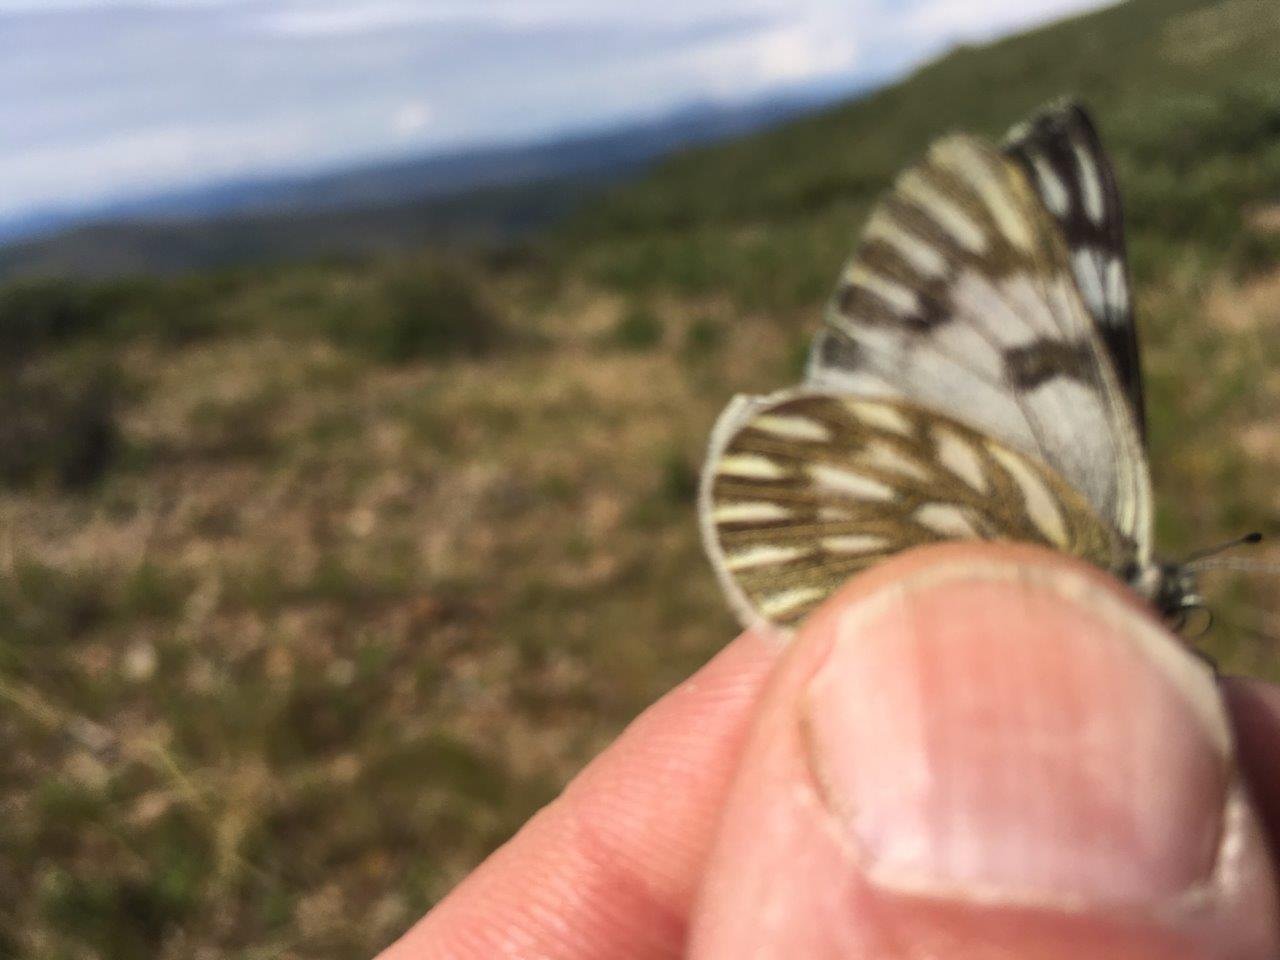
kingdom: Animalia
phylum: Arthropoda
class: Insecta
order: Lepidoptera
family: Pieridae
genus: Pontia
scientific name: Pontia occidentalis
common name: Western White
